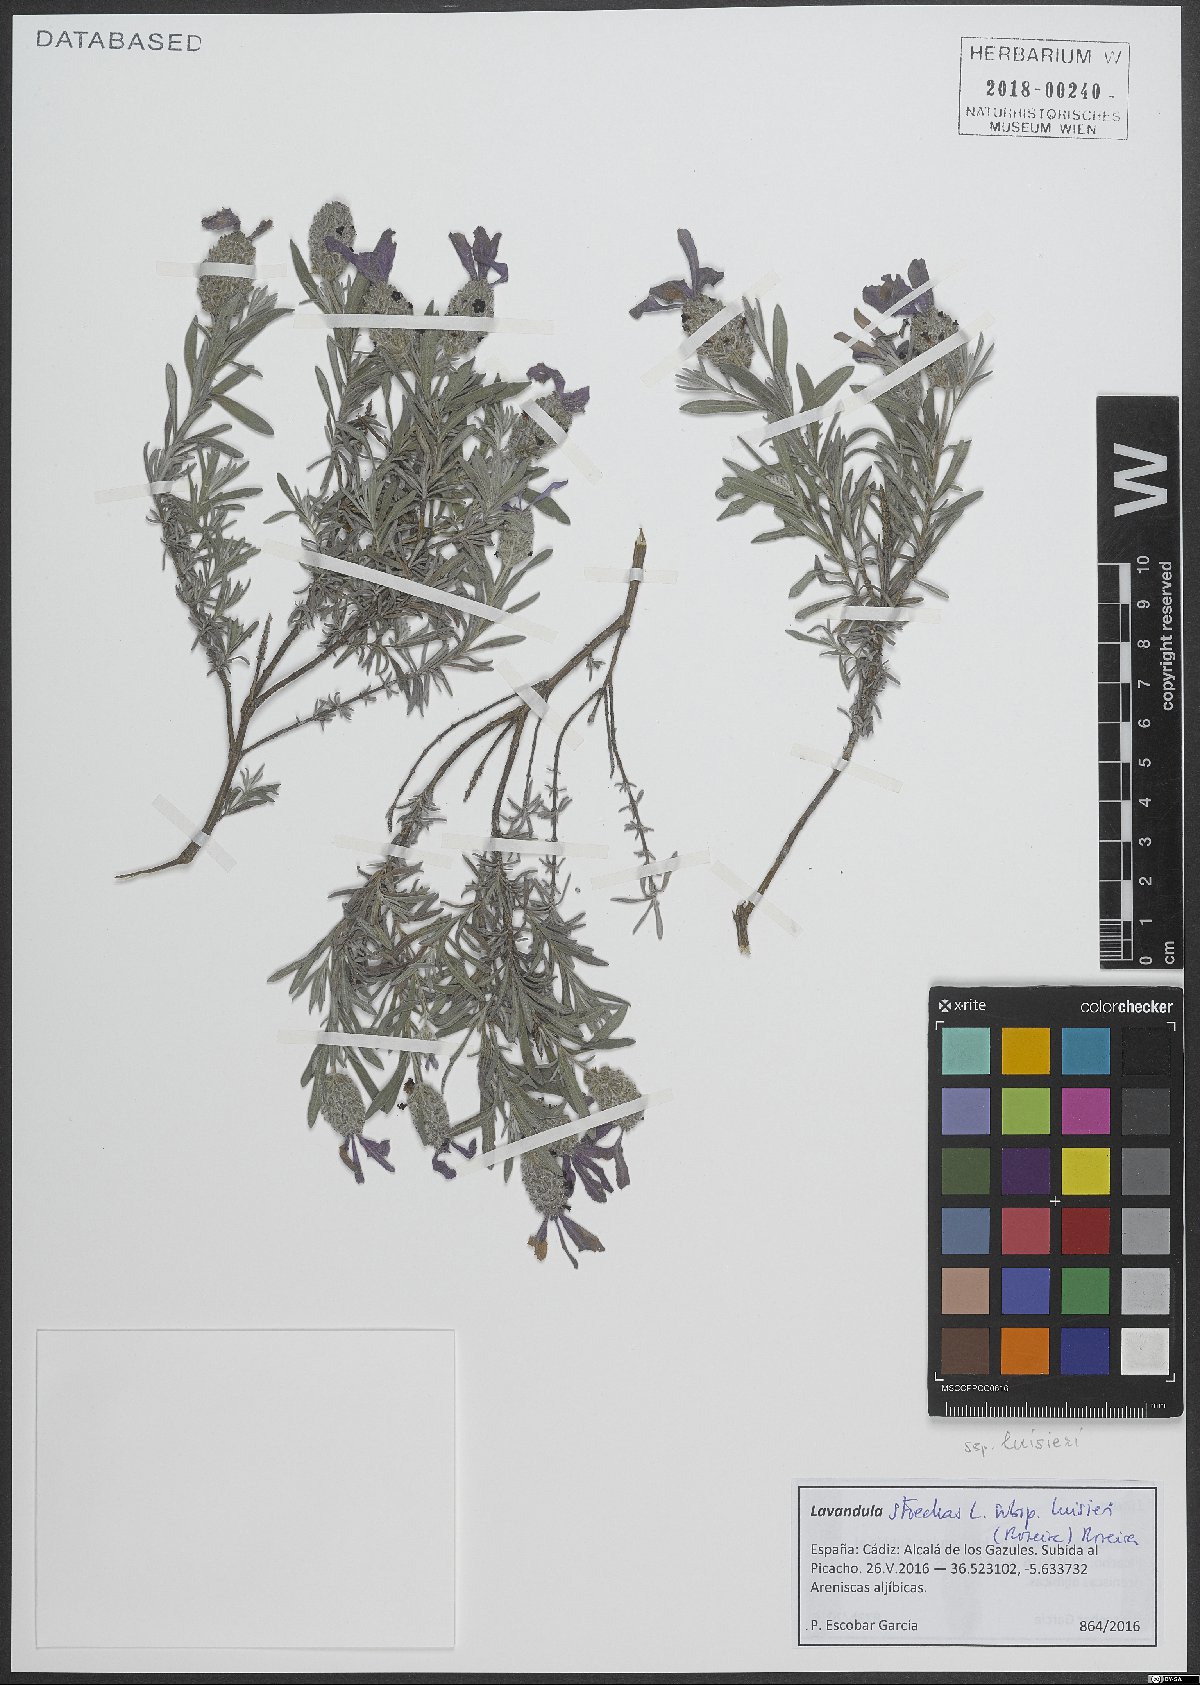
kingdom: Plantae
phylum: Tracheophyta
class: Magnoliopsida
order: Lamiales
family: Lamiaceae
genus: Lavandula
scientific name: Lavandula stoechas
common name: French lavender
